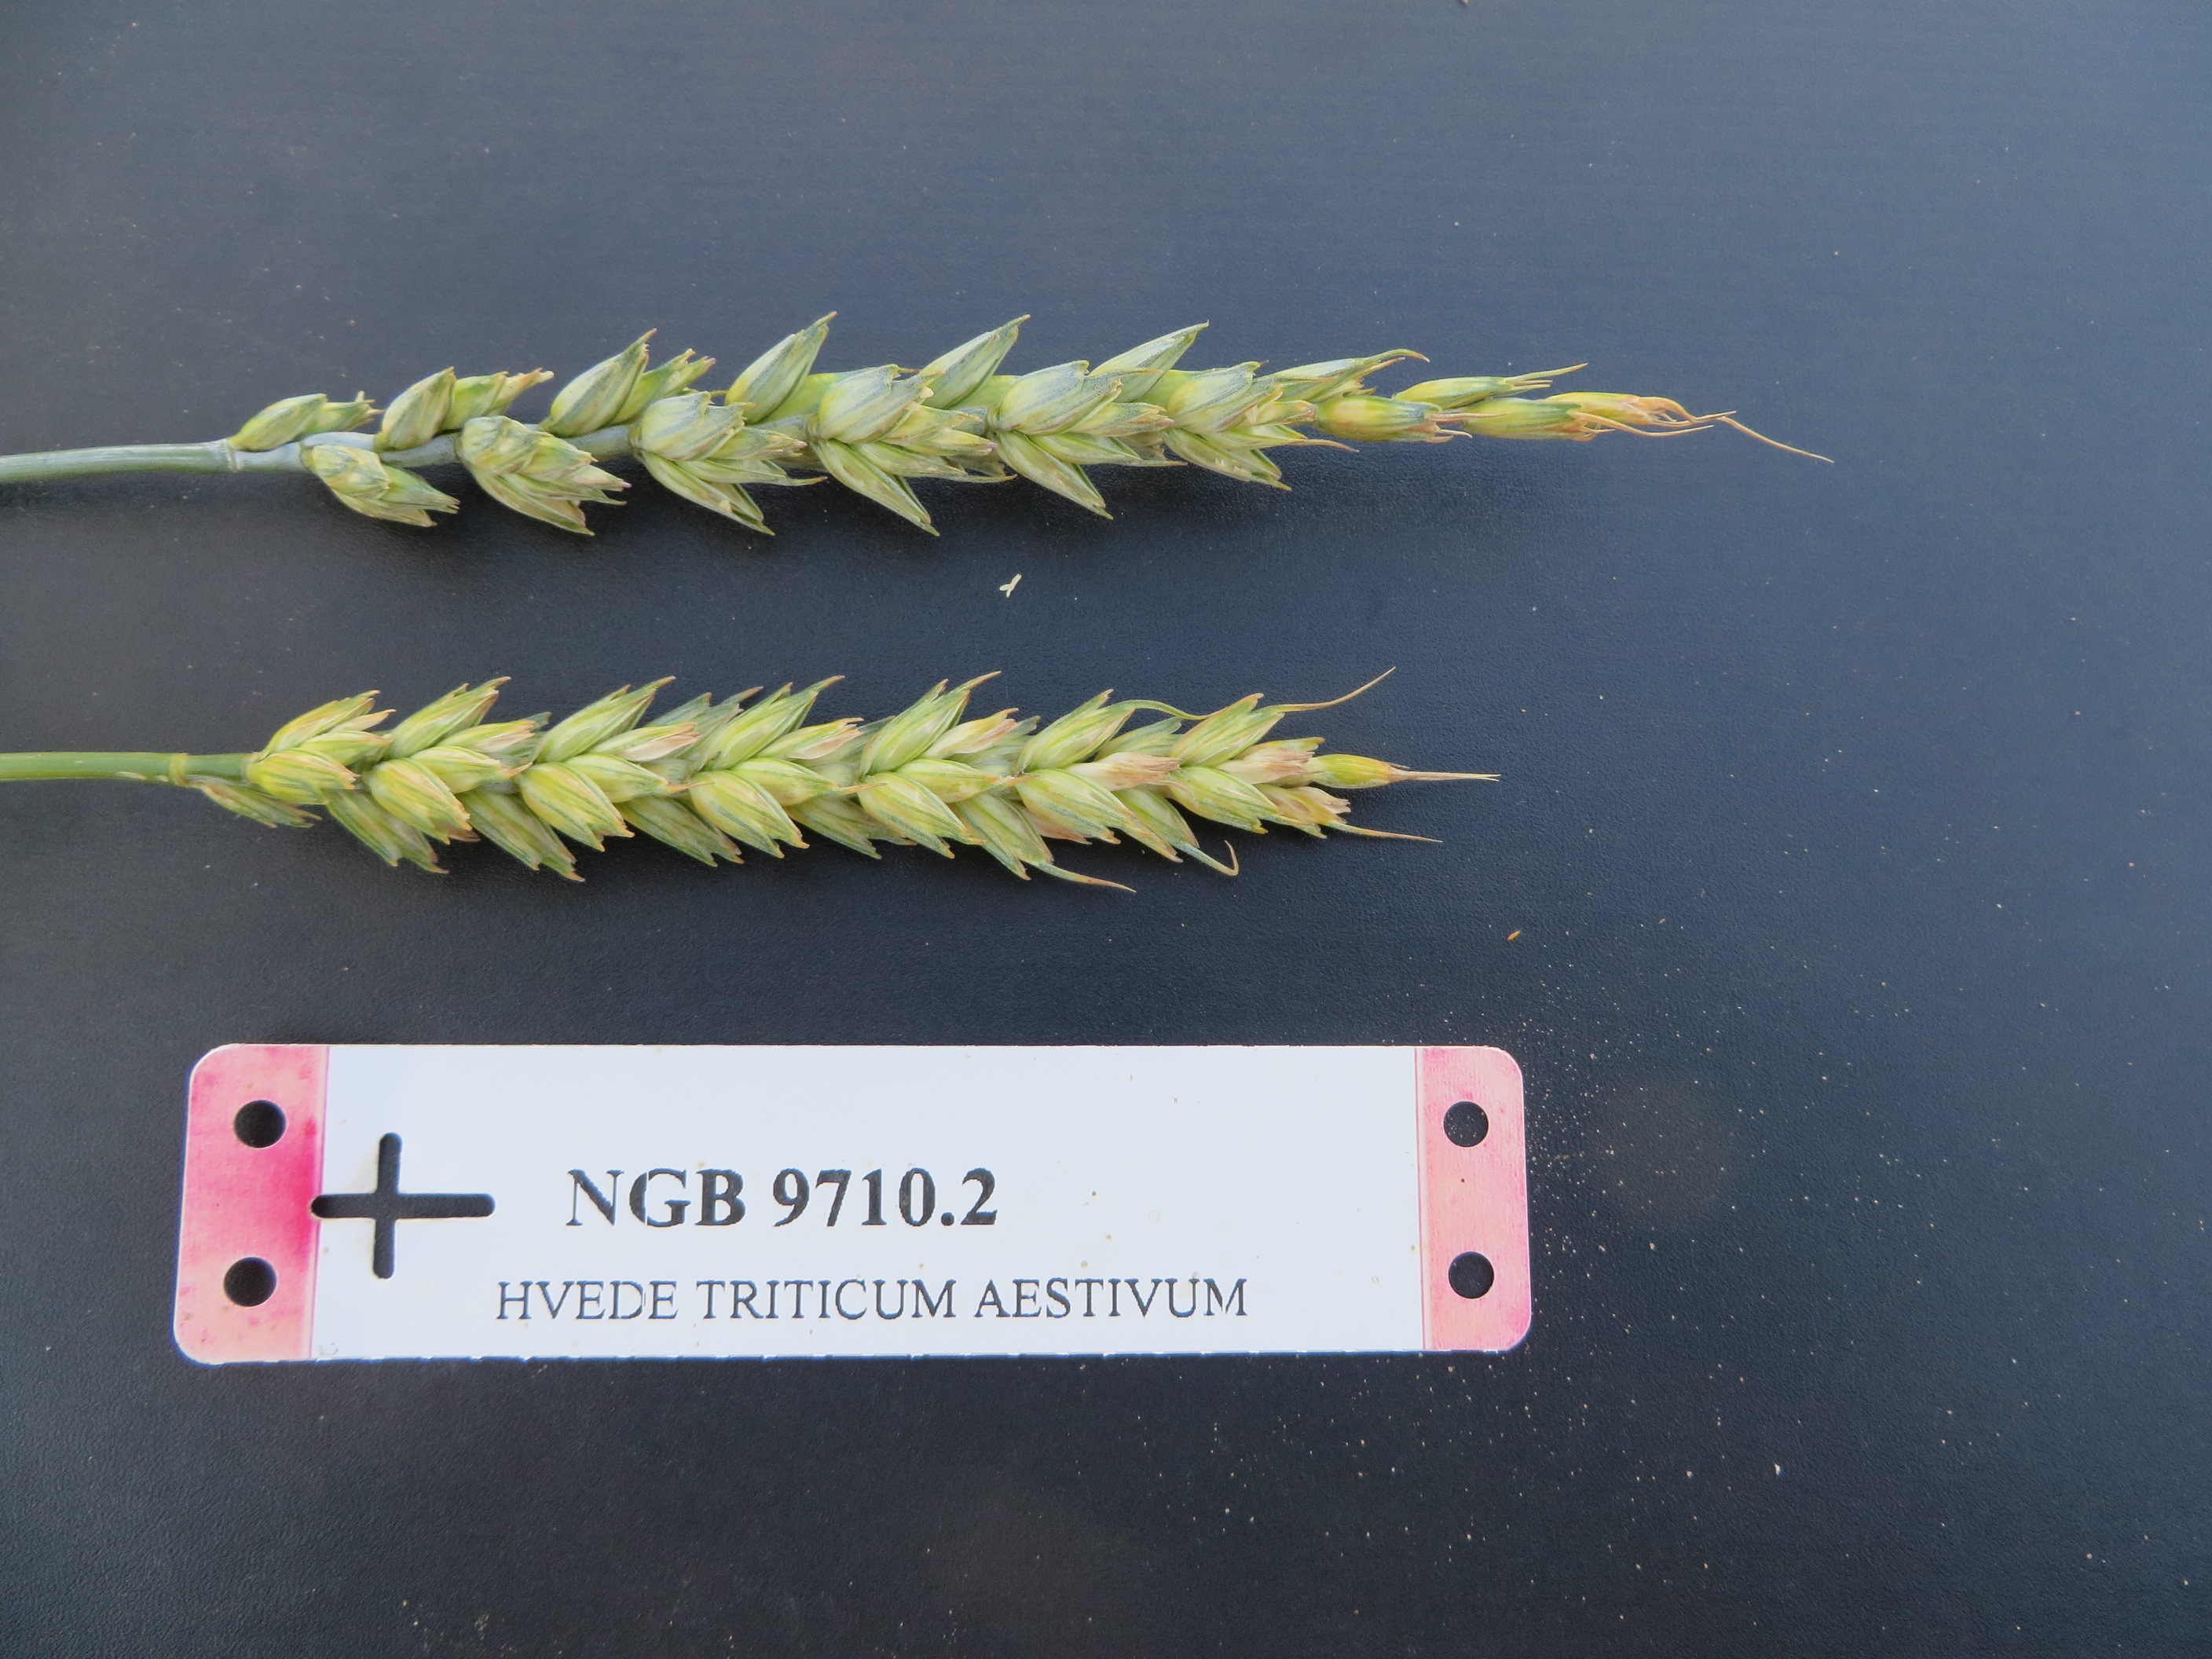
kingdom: Plantae
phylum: Tracheophyta
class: Liliopsida
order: Poales
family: Poaceae
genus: Triticum
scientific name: Triticum aestivum
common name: Common wheat
